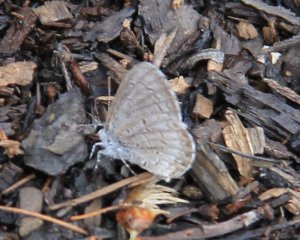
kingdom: Animalia
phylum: Arthropoda
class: Insecta
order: Lepidoptera
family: Lycaenidae
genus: Celastrina
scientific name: Celastrina
